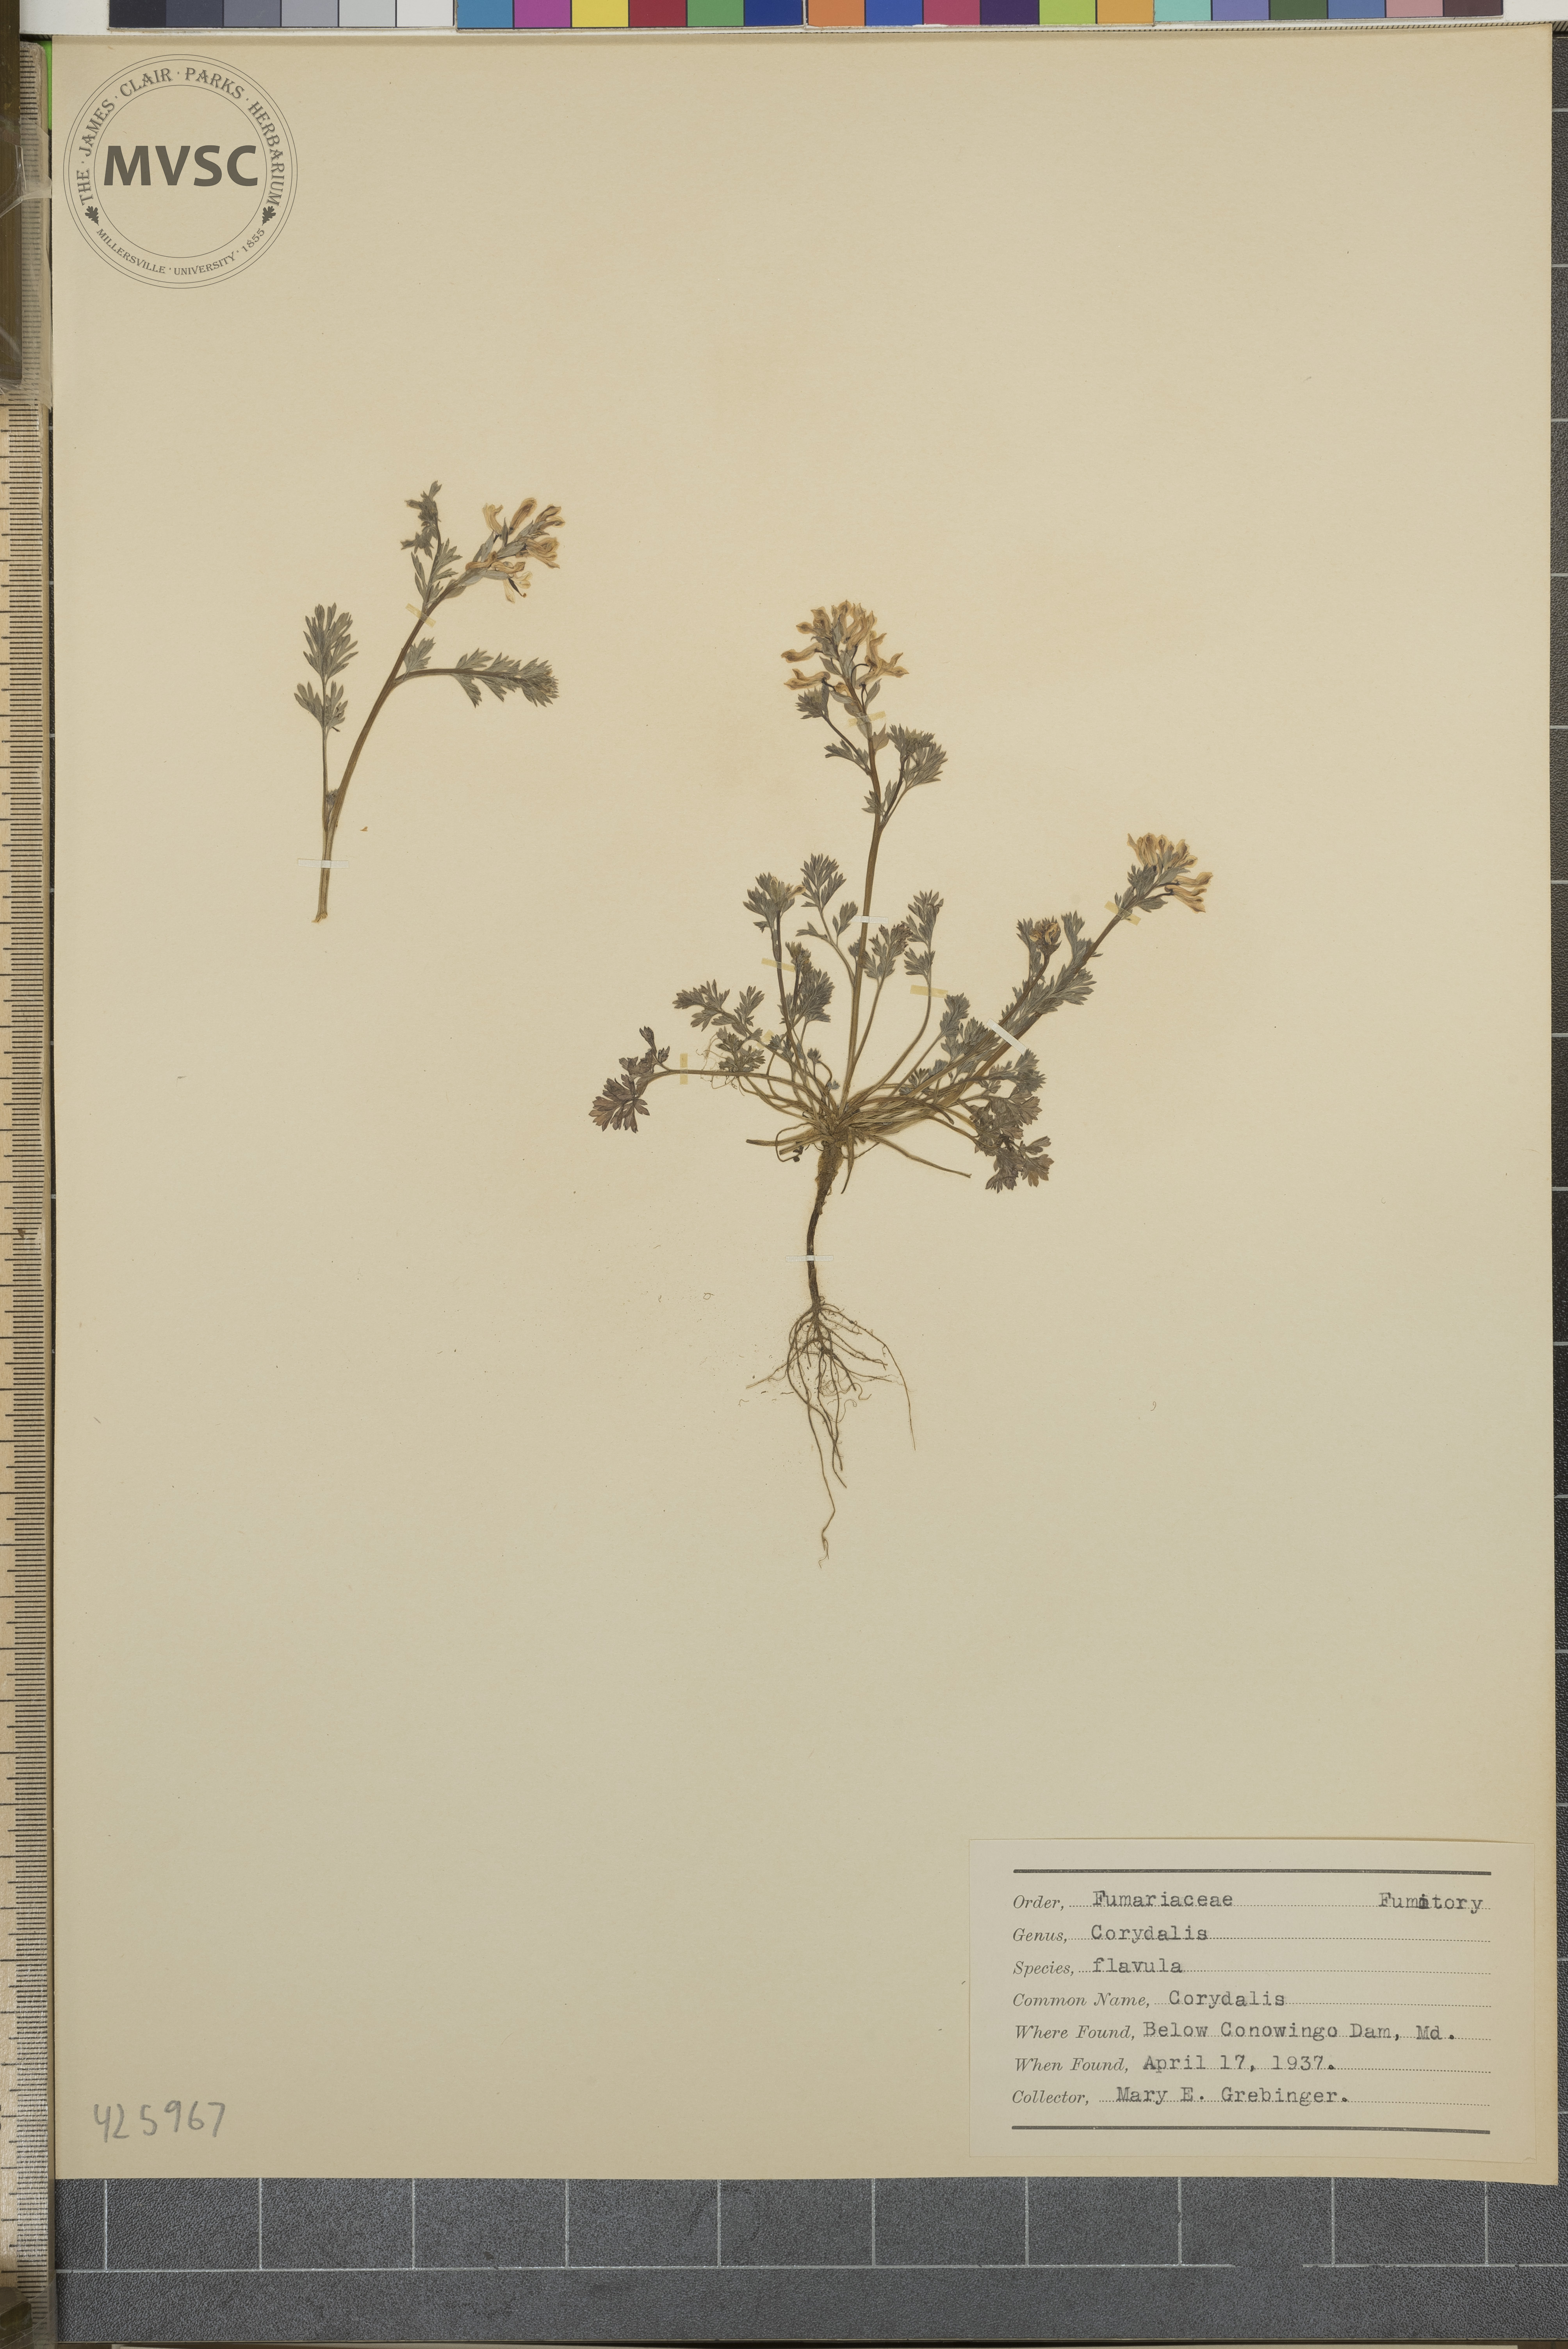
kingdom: Plantae
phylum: Tracheophyta
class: Magnoliopsida
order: Ranunculales
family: Papaveraceae
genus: Corydalis
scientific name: Corydalis flavula
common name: Corydalis
